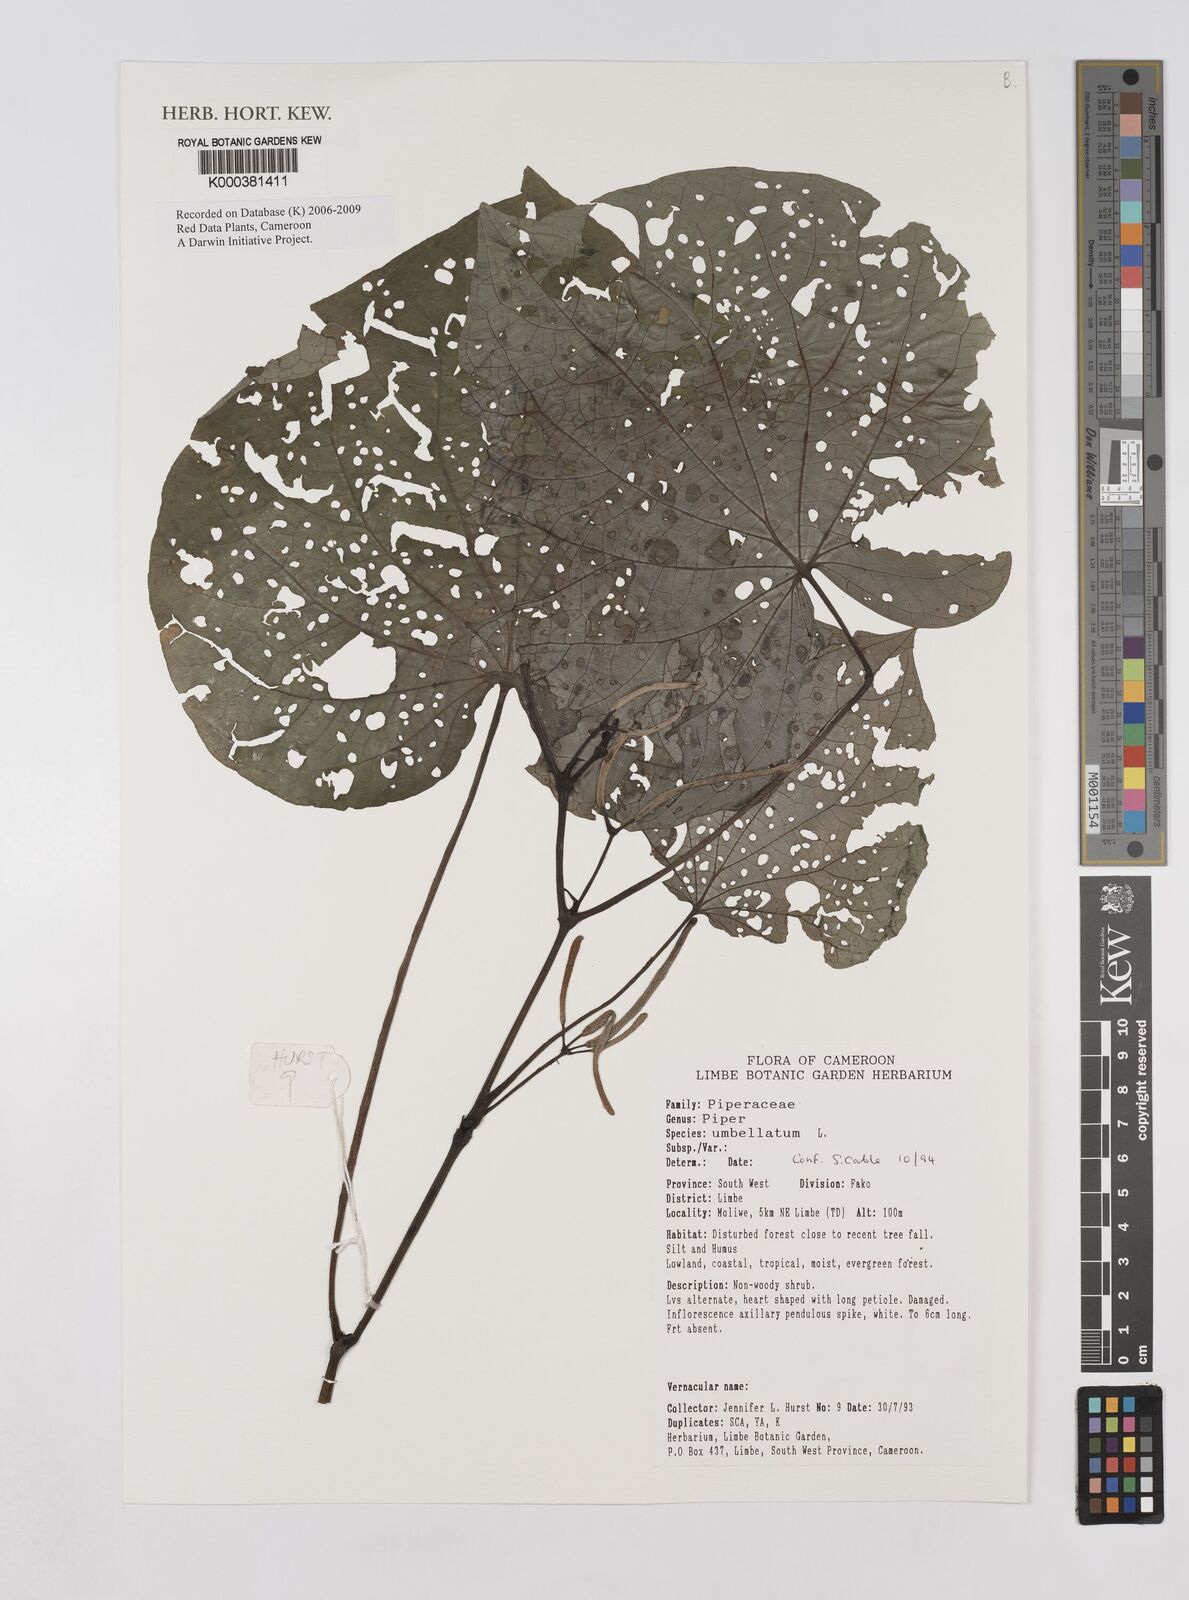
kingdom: Plantae
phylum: Tracheophyta
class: Magnoliopsida
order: Piperales
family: Piperaceae
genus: Piper
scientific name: Piper umbellatum
